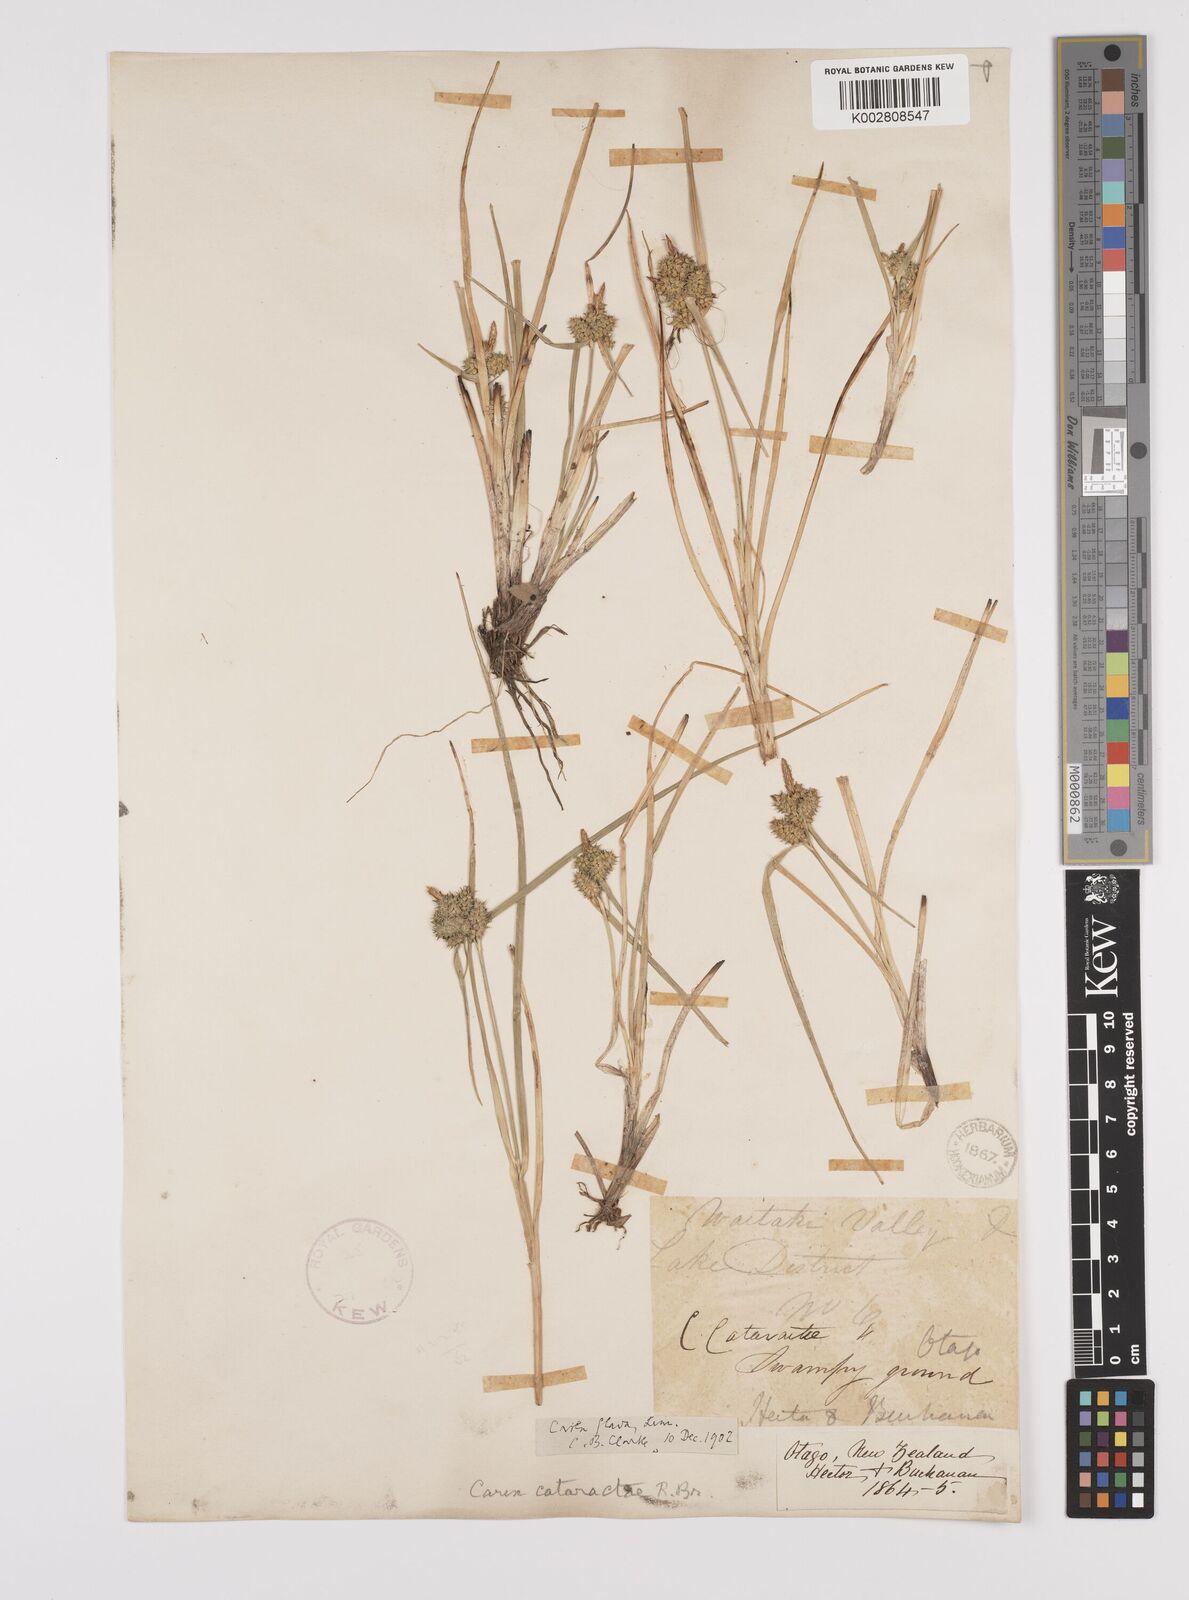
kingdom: Plantae
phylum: Tracheophyta
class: Liliopsida
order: Poales
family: Cyperaceae
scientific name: Cyperaceae
